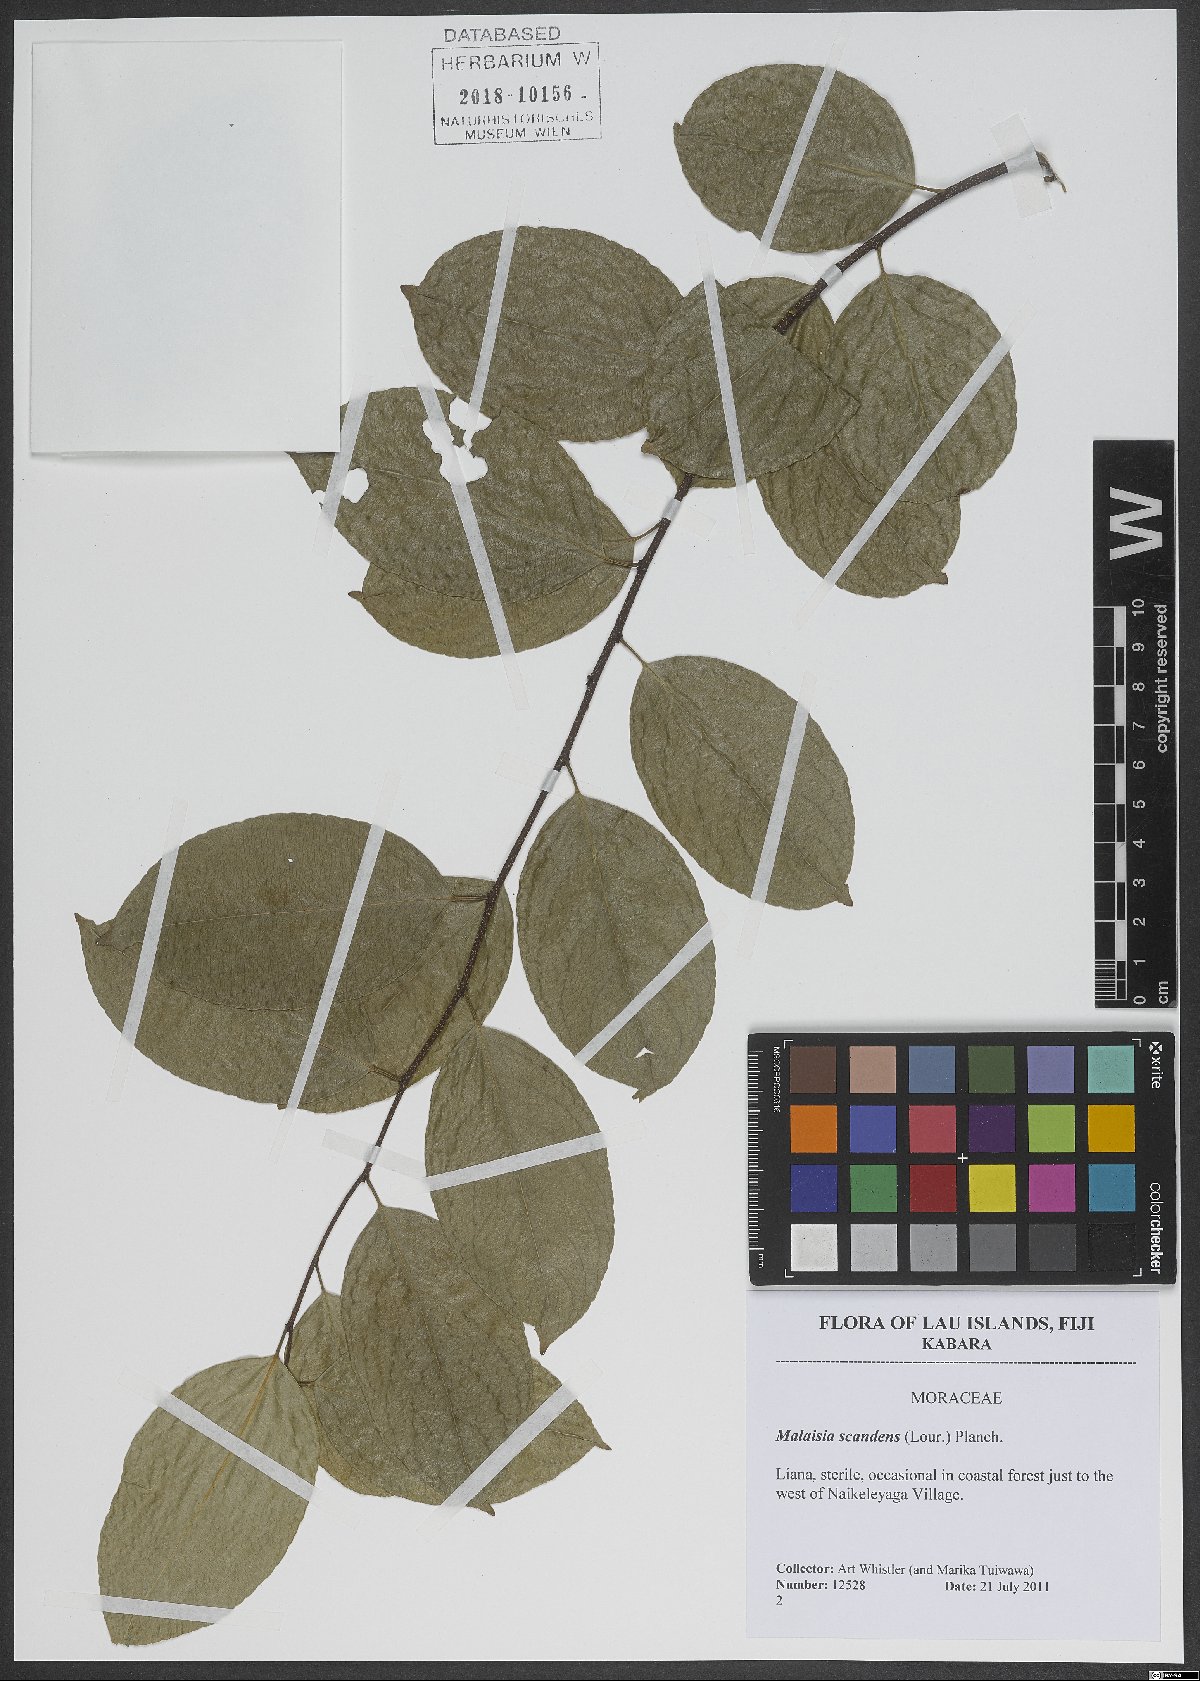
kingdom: Plantae
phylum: Tracheophyta
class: Magnoliopsida
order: Rosales
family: Moraceae
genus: Malaisia
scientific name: Malaisia scandens
